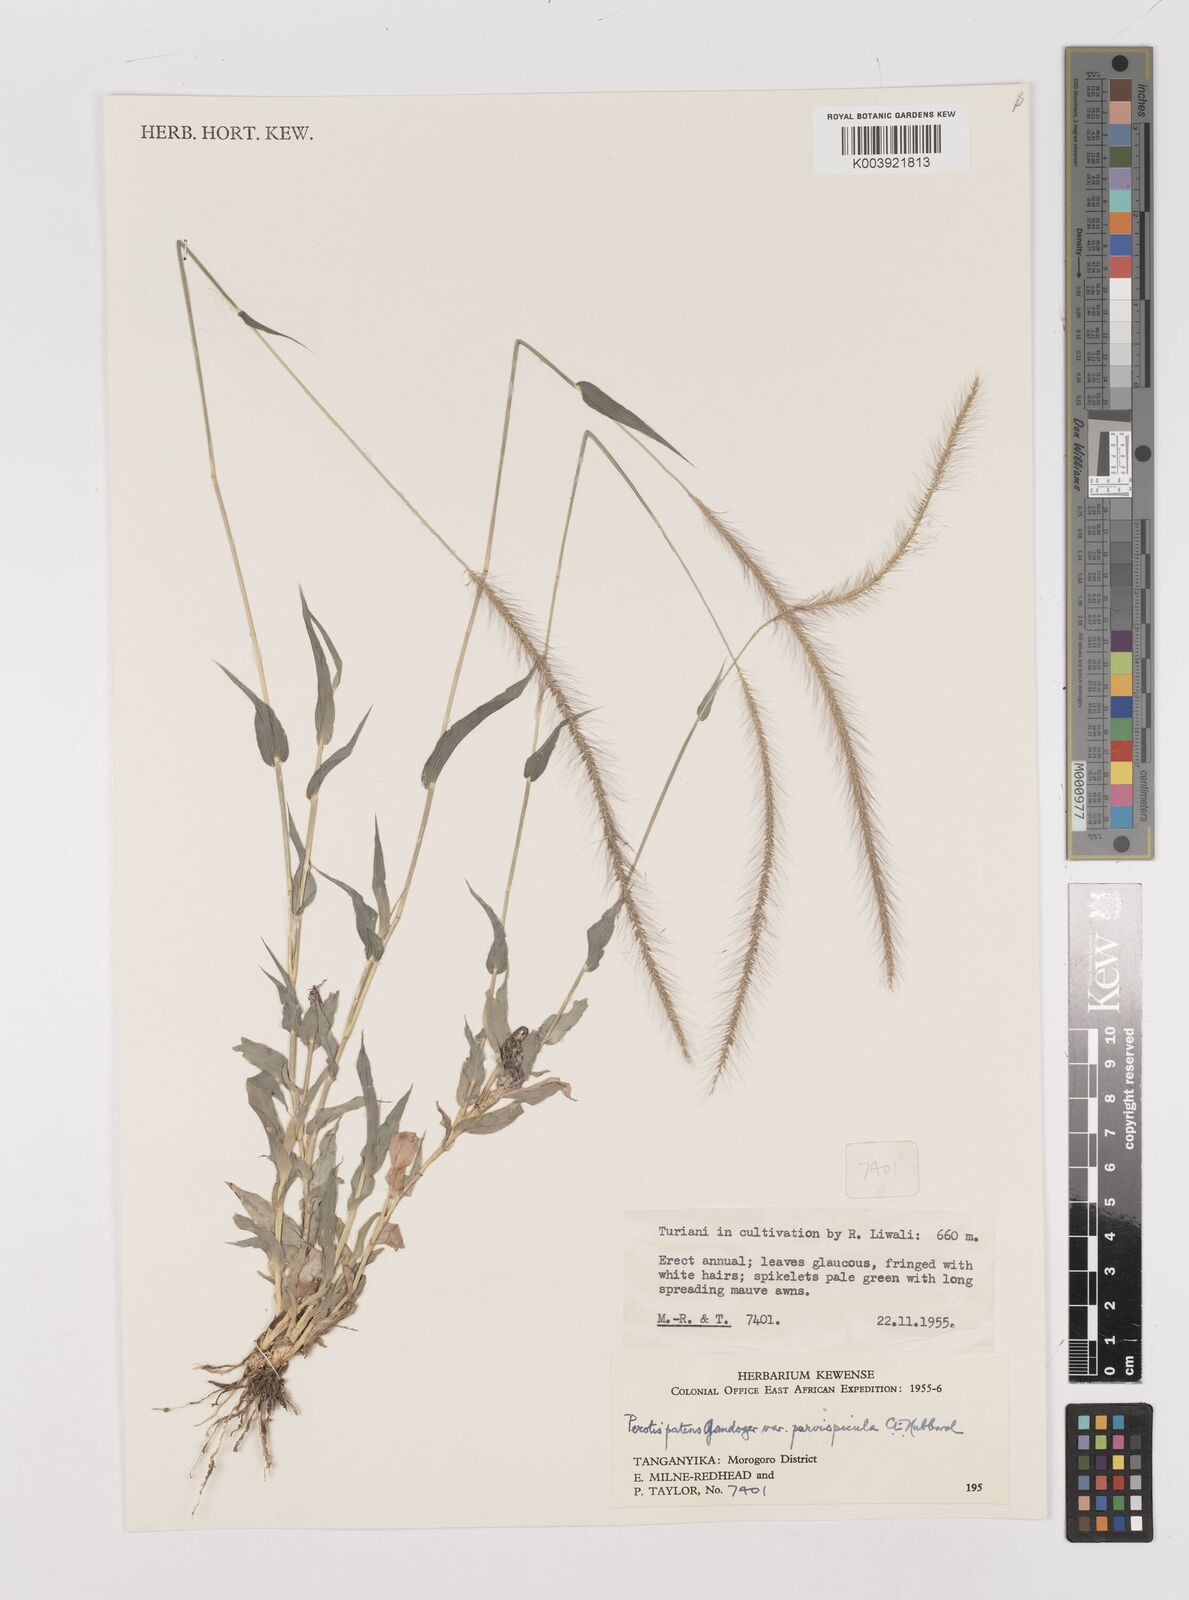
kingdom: Plantae
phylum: Tracheophyta
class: Liliopsida
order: Poales
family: Poaceae
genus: Perotis
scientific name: Perotis patens
